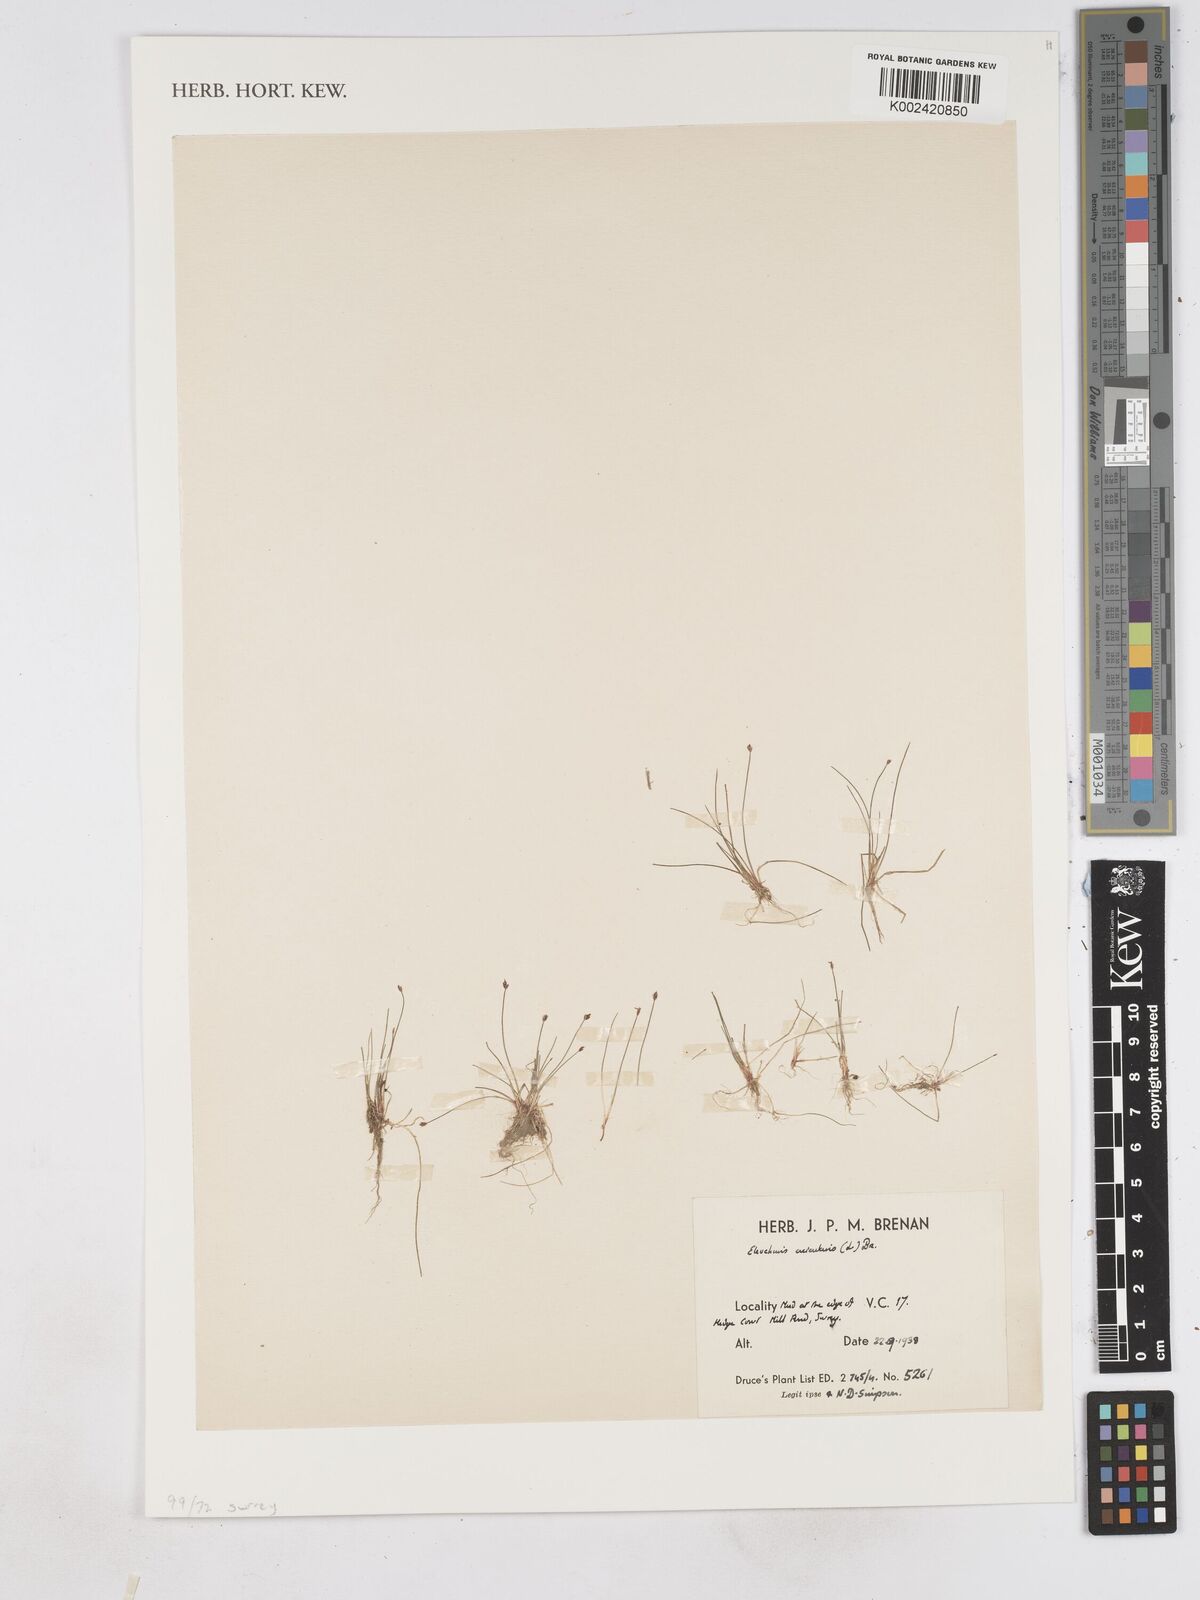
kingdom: Plantae
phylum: Tracheophyta
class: Liliopsida
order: Poales
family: Cyperaceae
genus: Eleocharis
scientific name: Eleocharis acicularis
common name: Needle spike-rush
